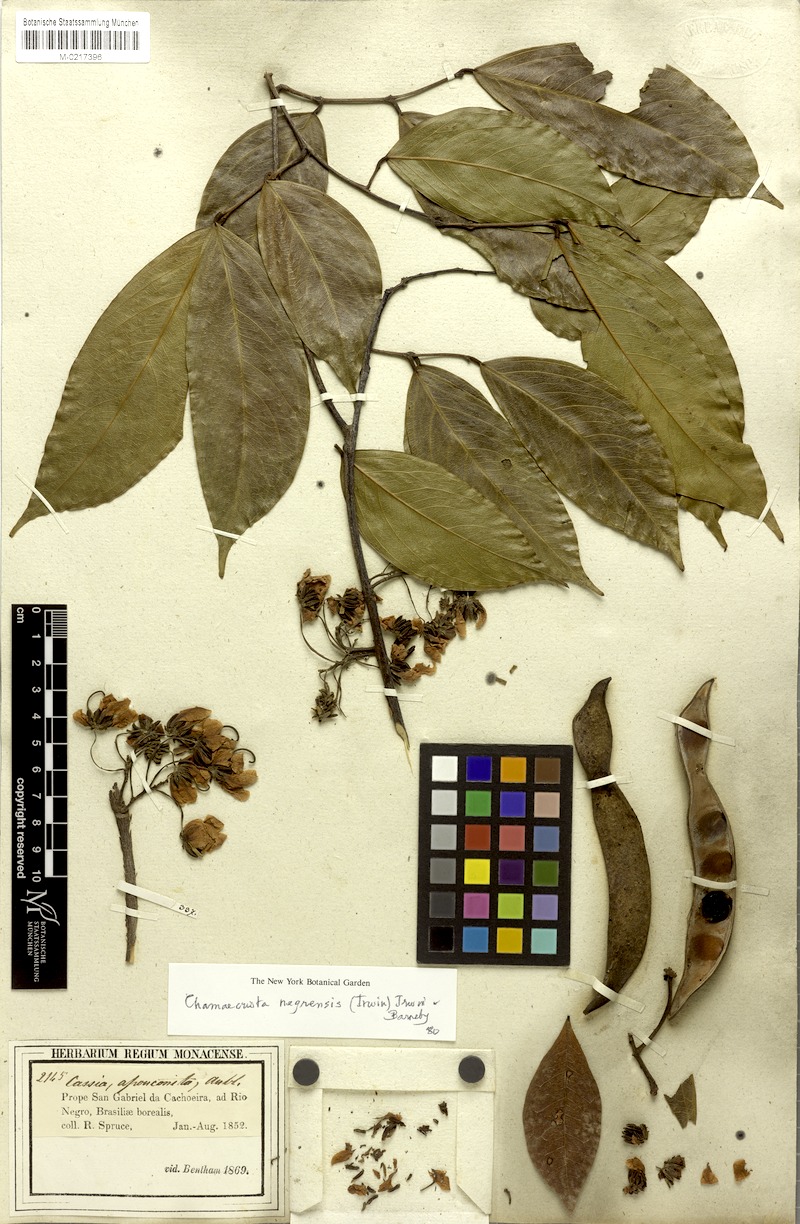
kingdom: Plantae
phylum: Tracheophyta
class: Magnoliopsida
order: Fabales
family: Fabaceae
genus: Chamaecrista
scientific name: Chamaecrista negrensis
